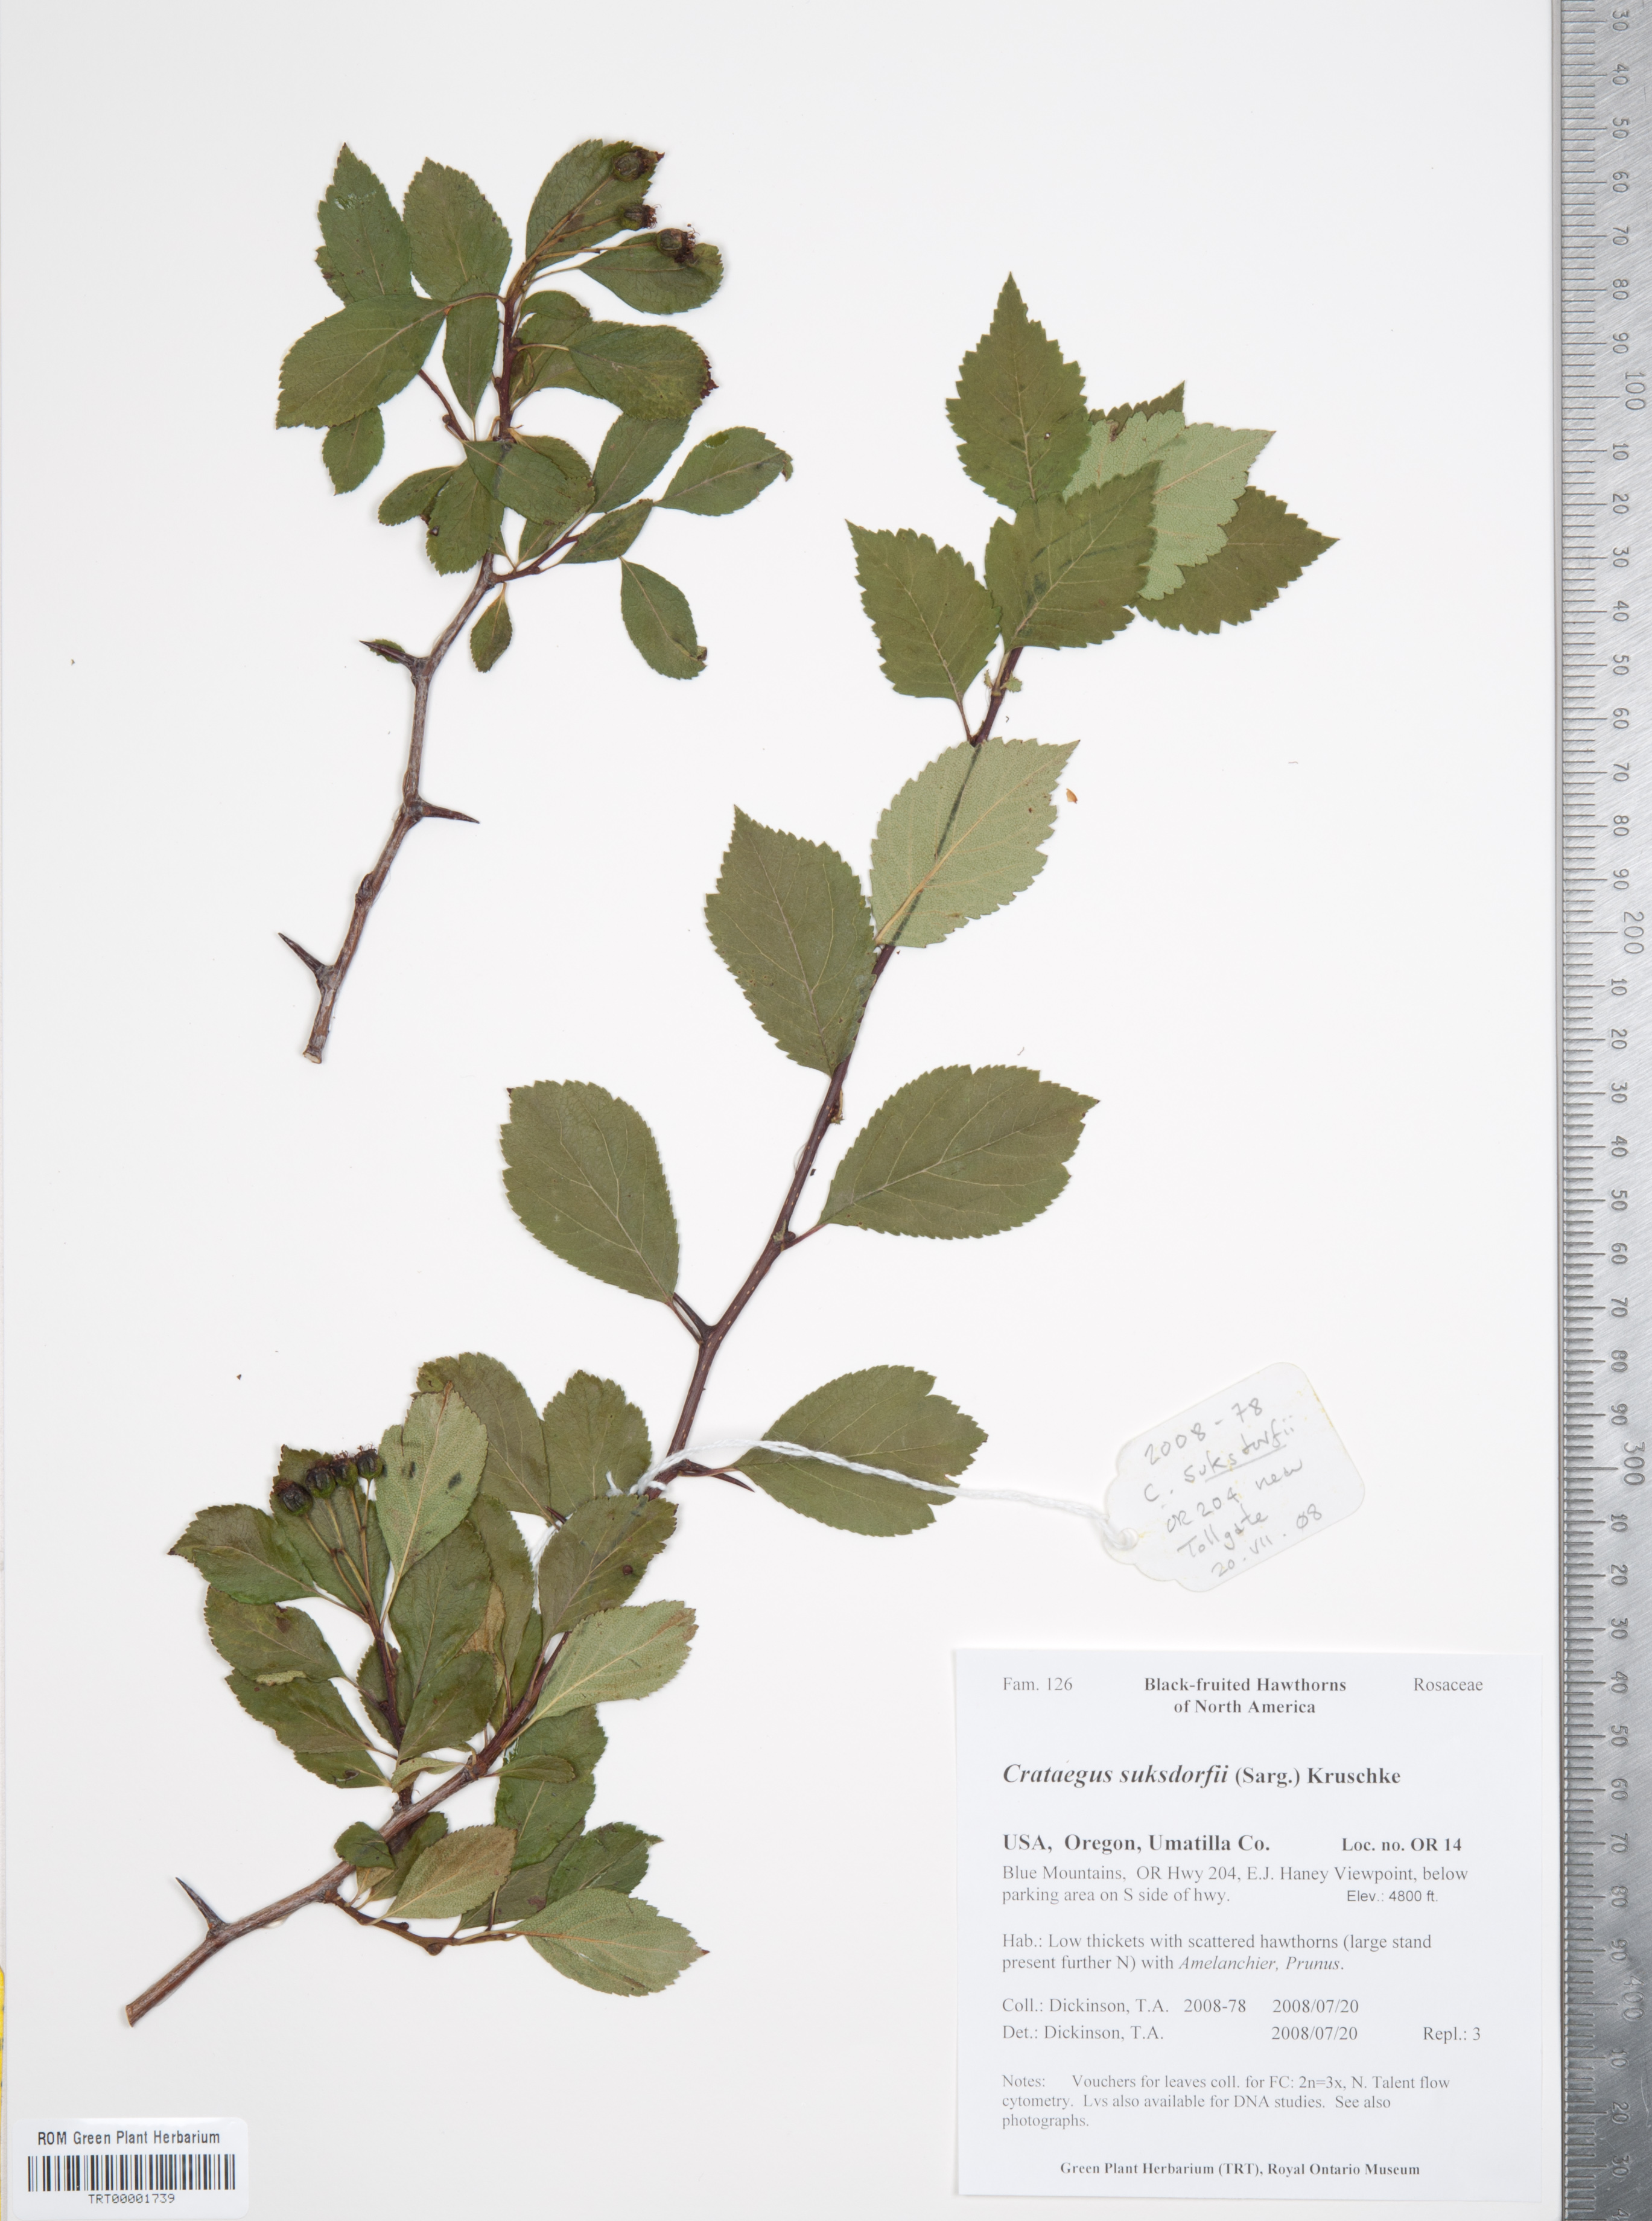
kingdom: Plantae
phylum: Tracheophyta
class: Magnoliopsida
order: Rosales
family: Rosaceae
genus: Crataegus
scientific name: Crataegus gaylussacia
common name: Huckleberry hawthorn
